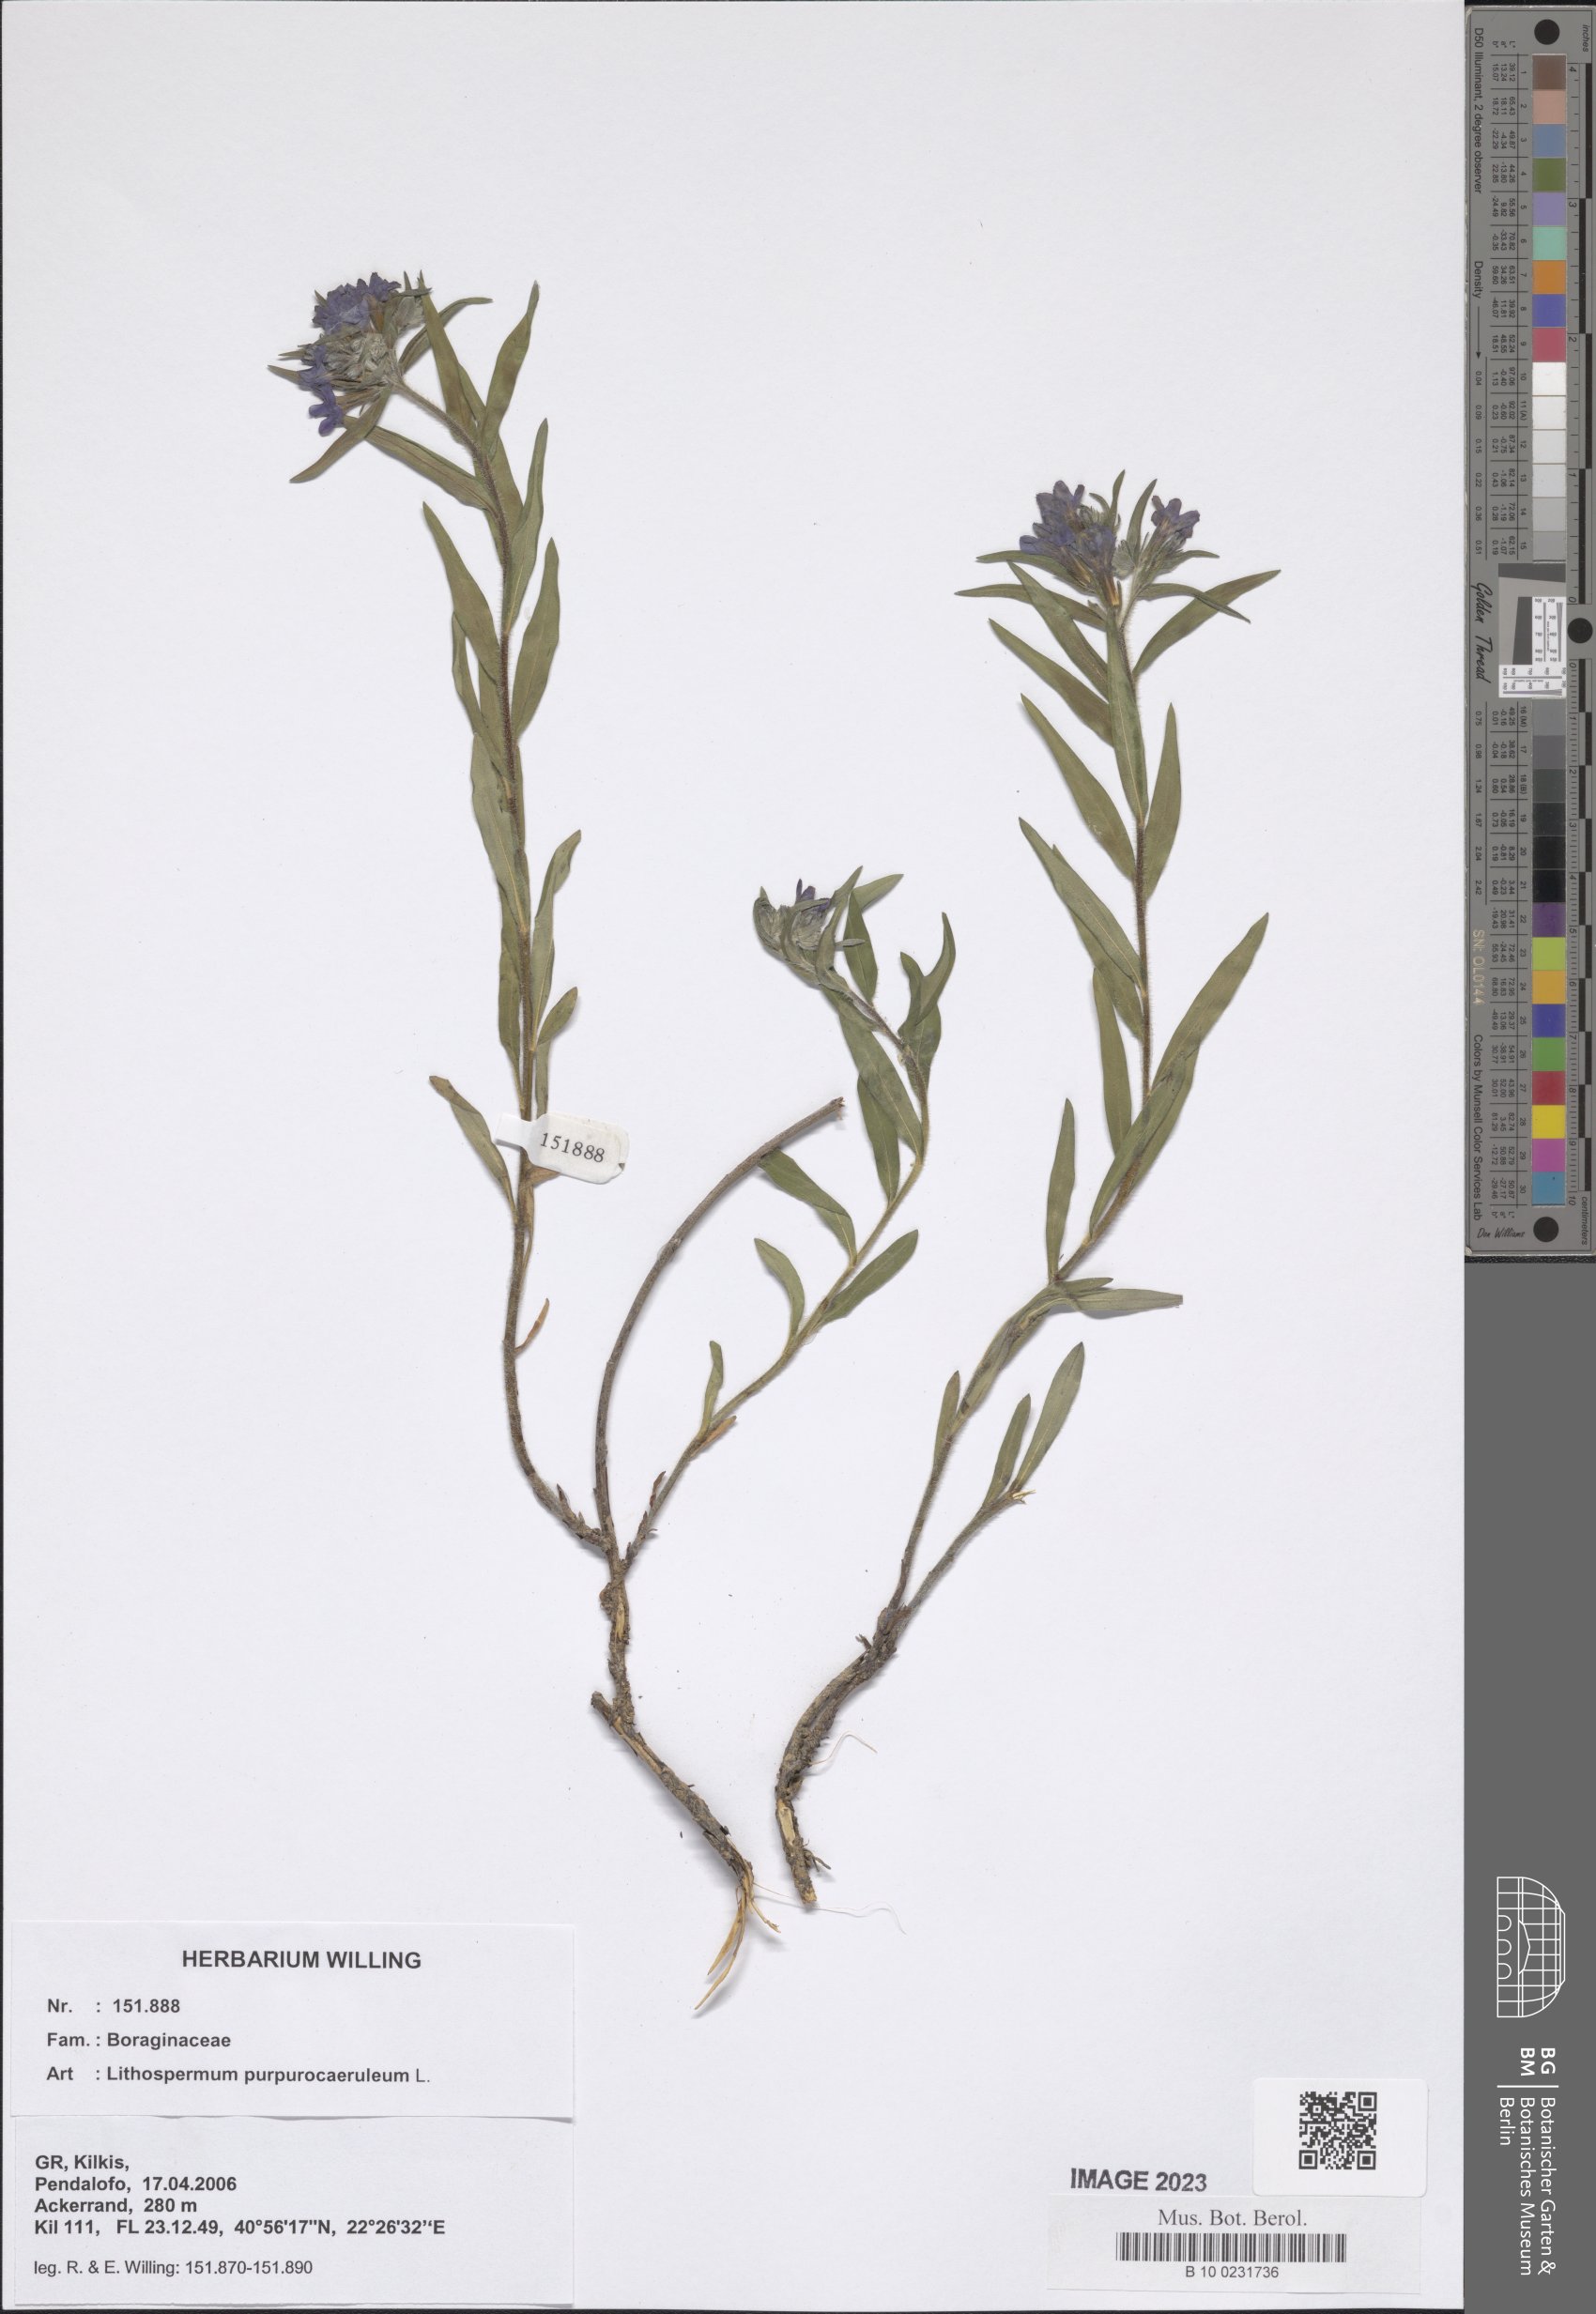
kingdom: Plantae
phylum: Tracheophyta
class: Magnoliopsida
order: Boraginales
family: Boraginaceae
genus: Aegonychon
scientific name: Aegonychon purpurocaeruleum
